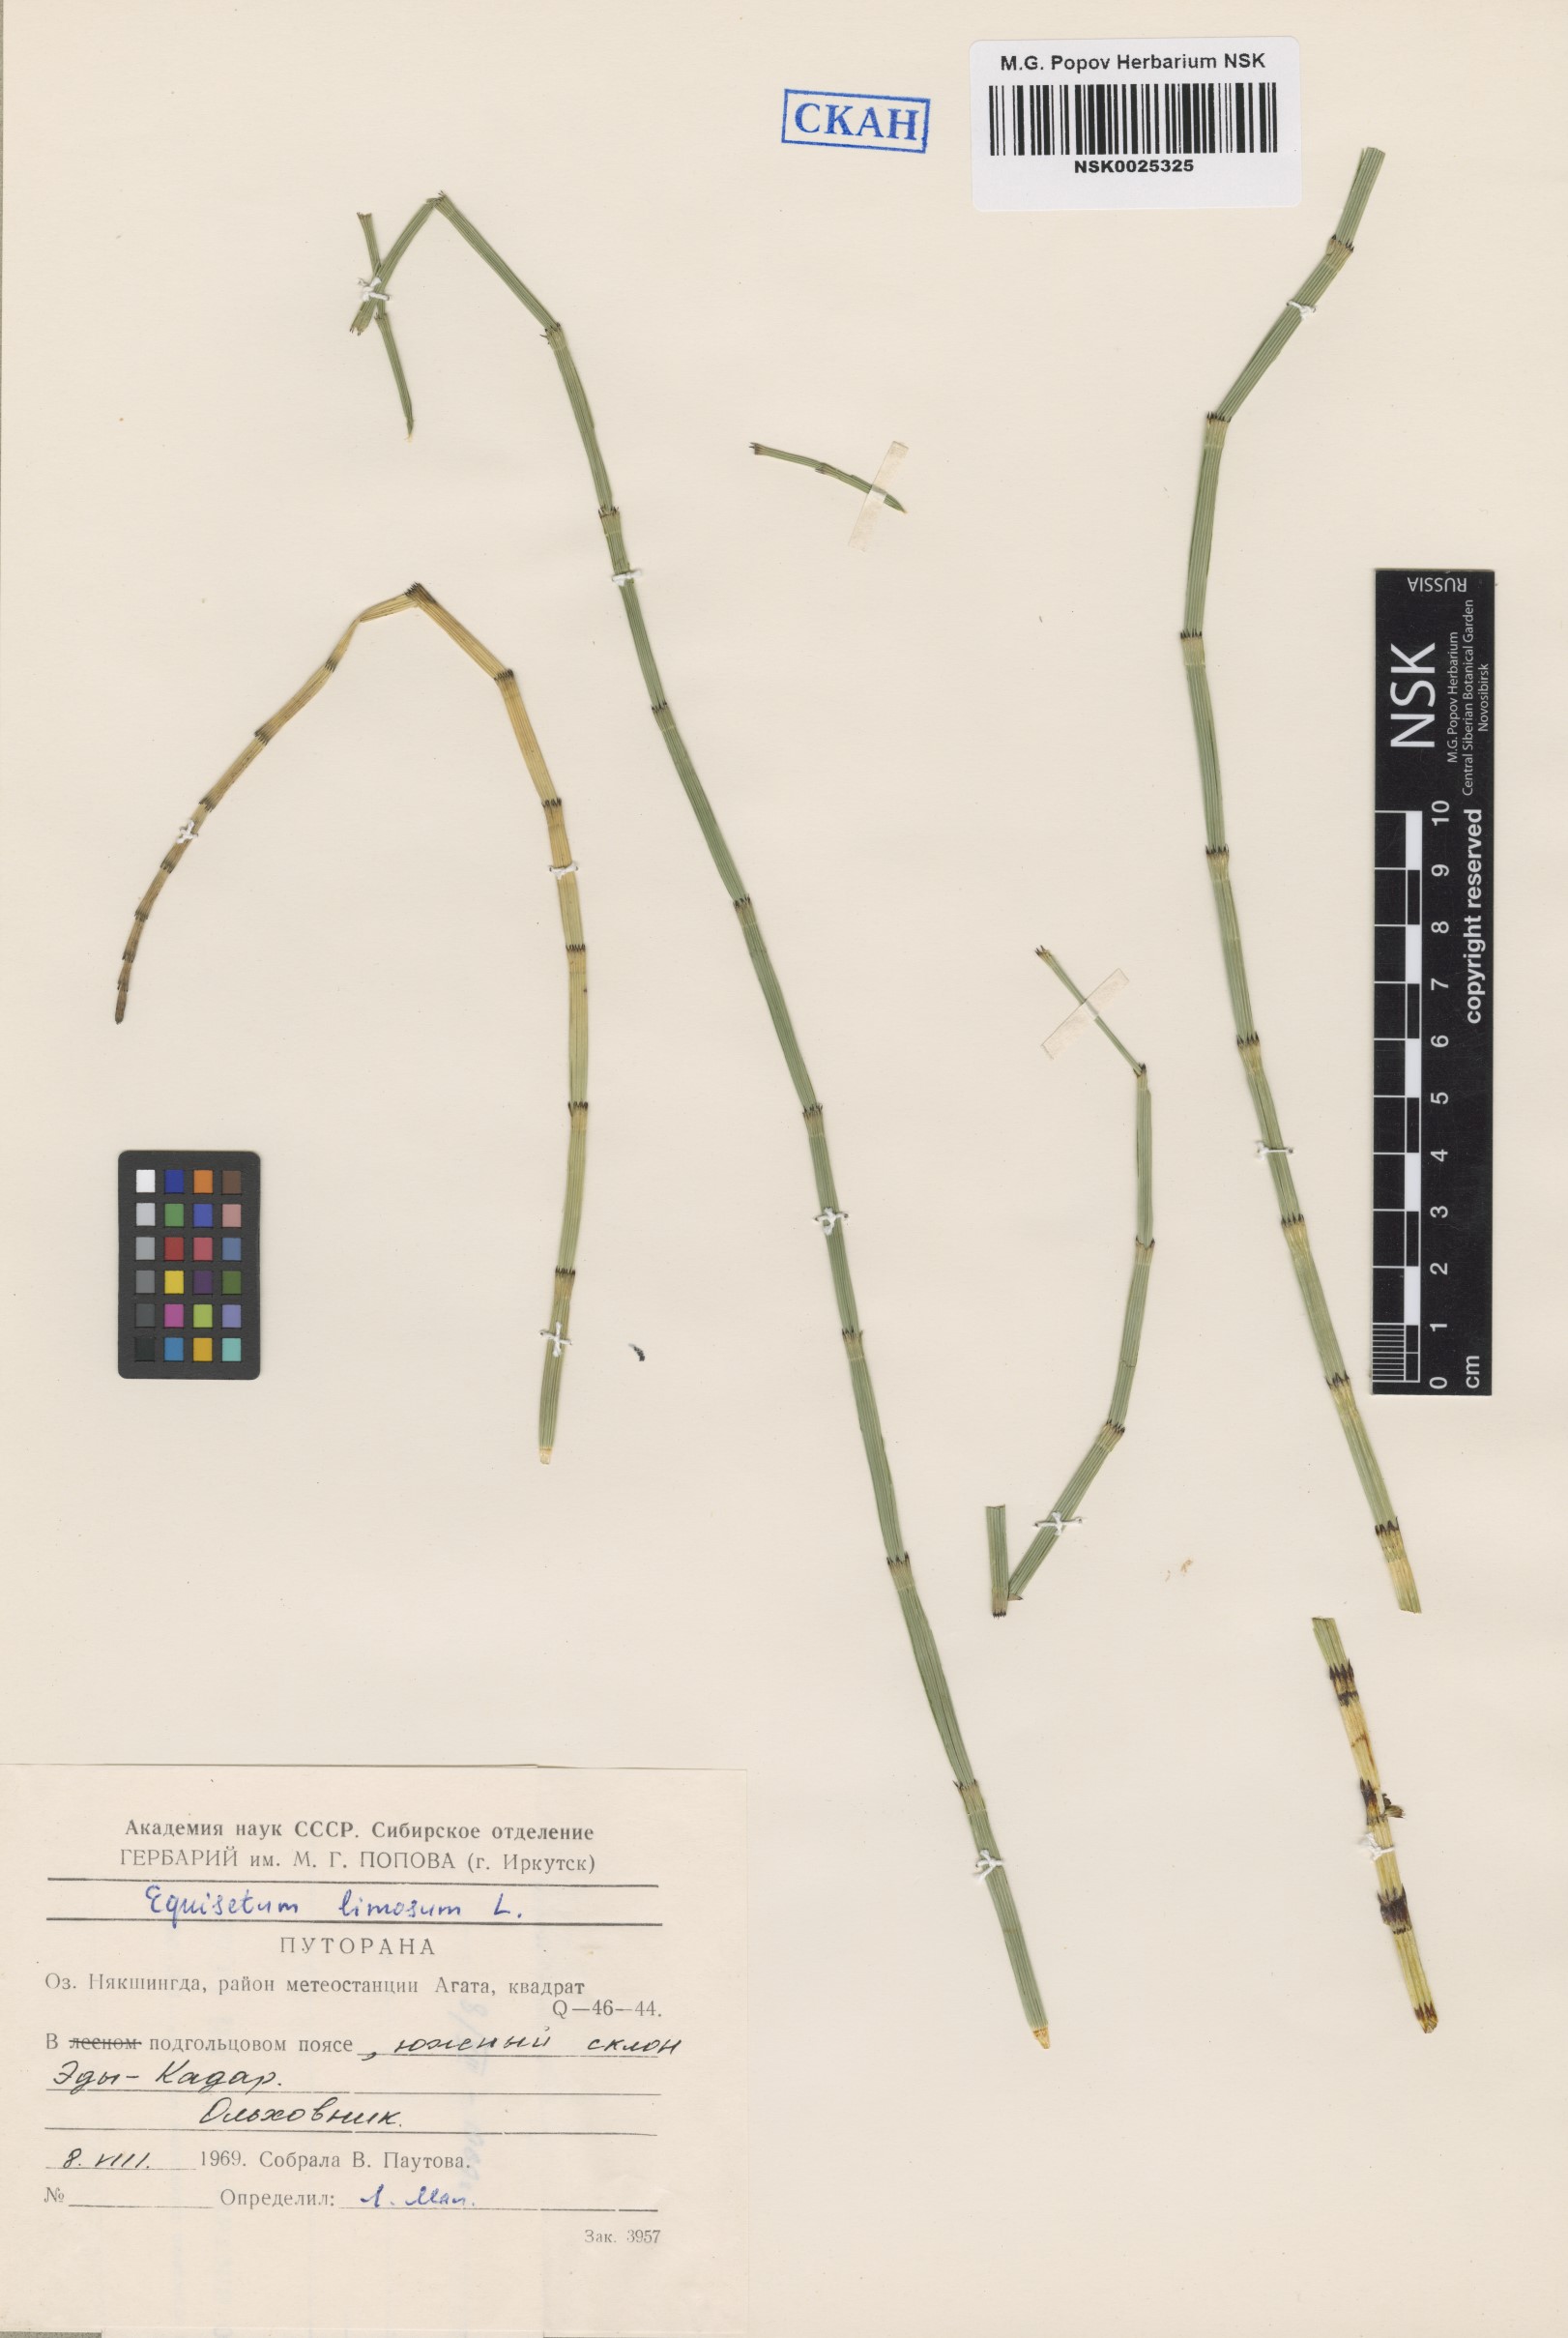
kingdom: Plantae
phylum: Tracheophyta
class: Polypodiopsida
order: Equisetales
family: Equisetaceae
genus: Equisetum
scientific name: Equisetum fluviatile
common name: Water horsetail
